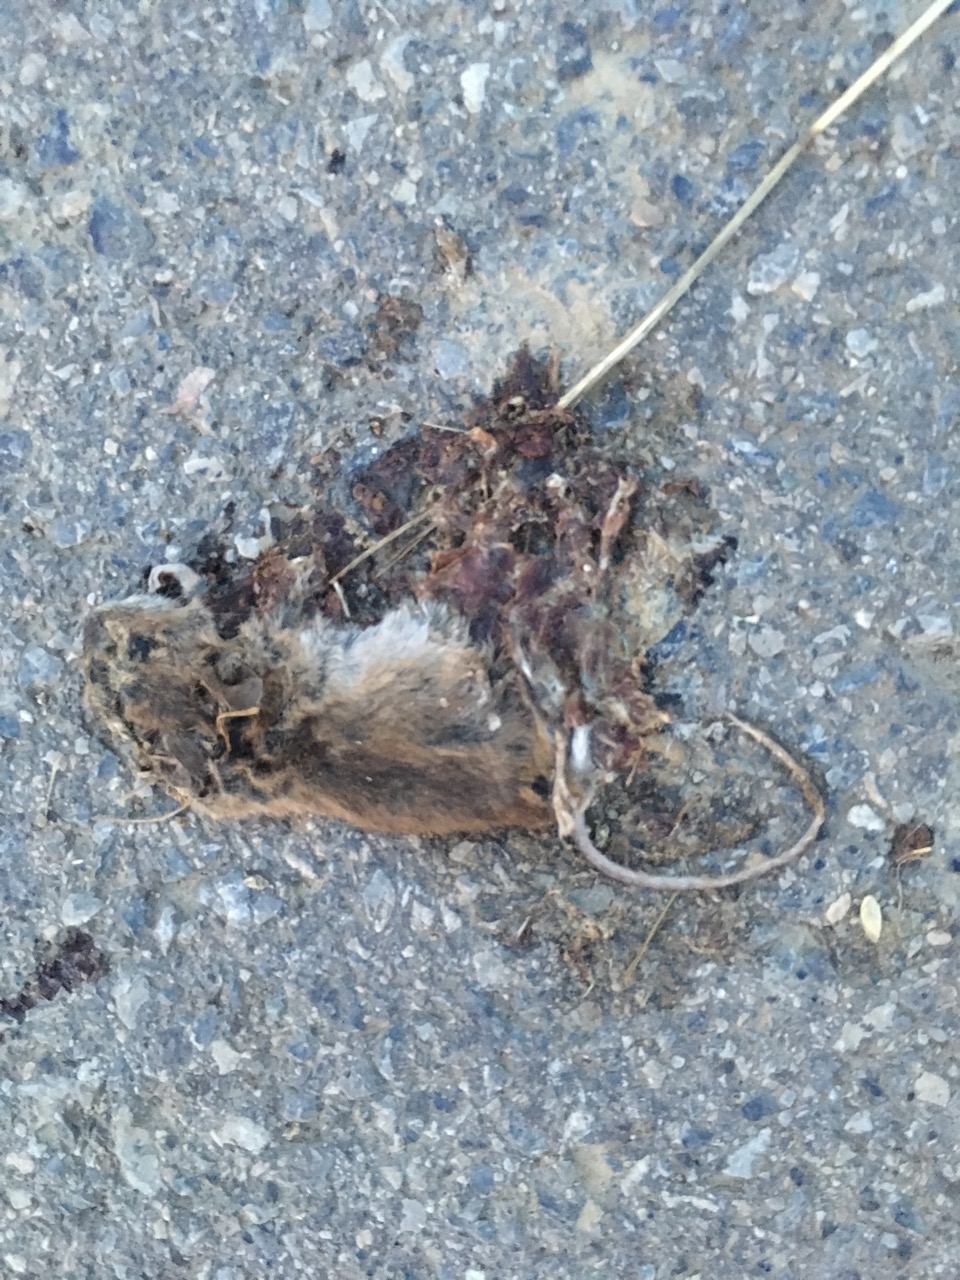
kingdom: Animalia
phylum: Chordata
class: Mammalia
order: Rodentia
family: Muridae
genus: Apodemus
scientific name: Apodemus
